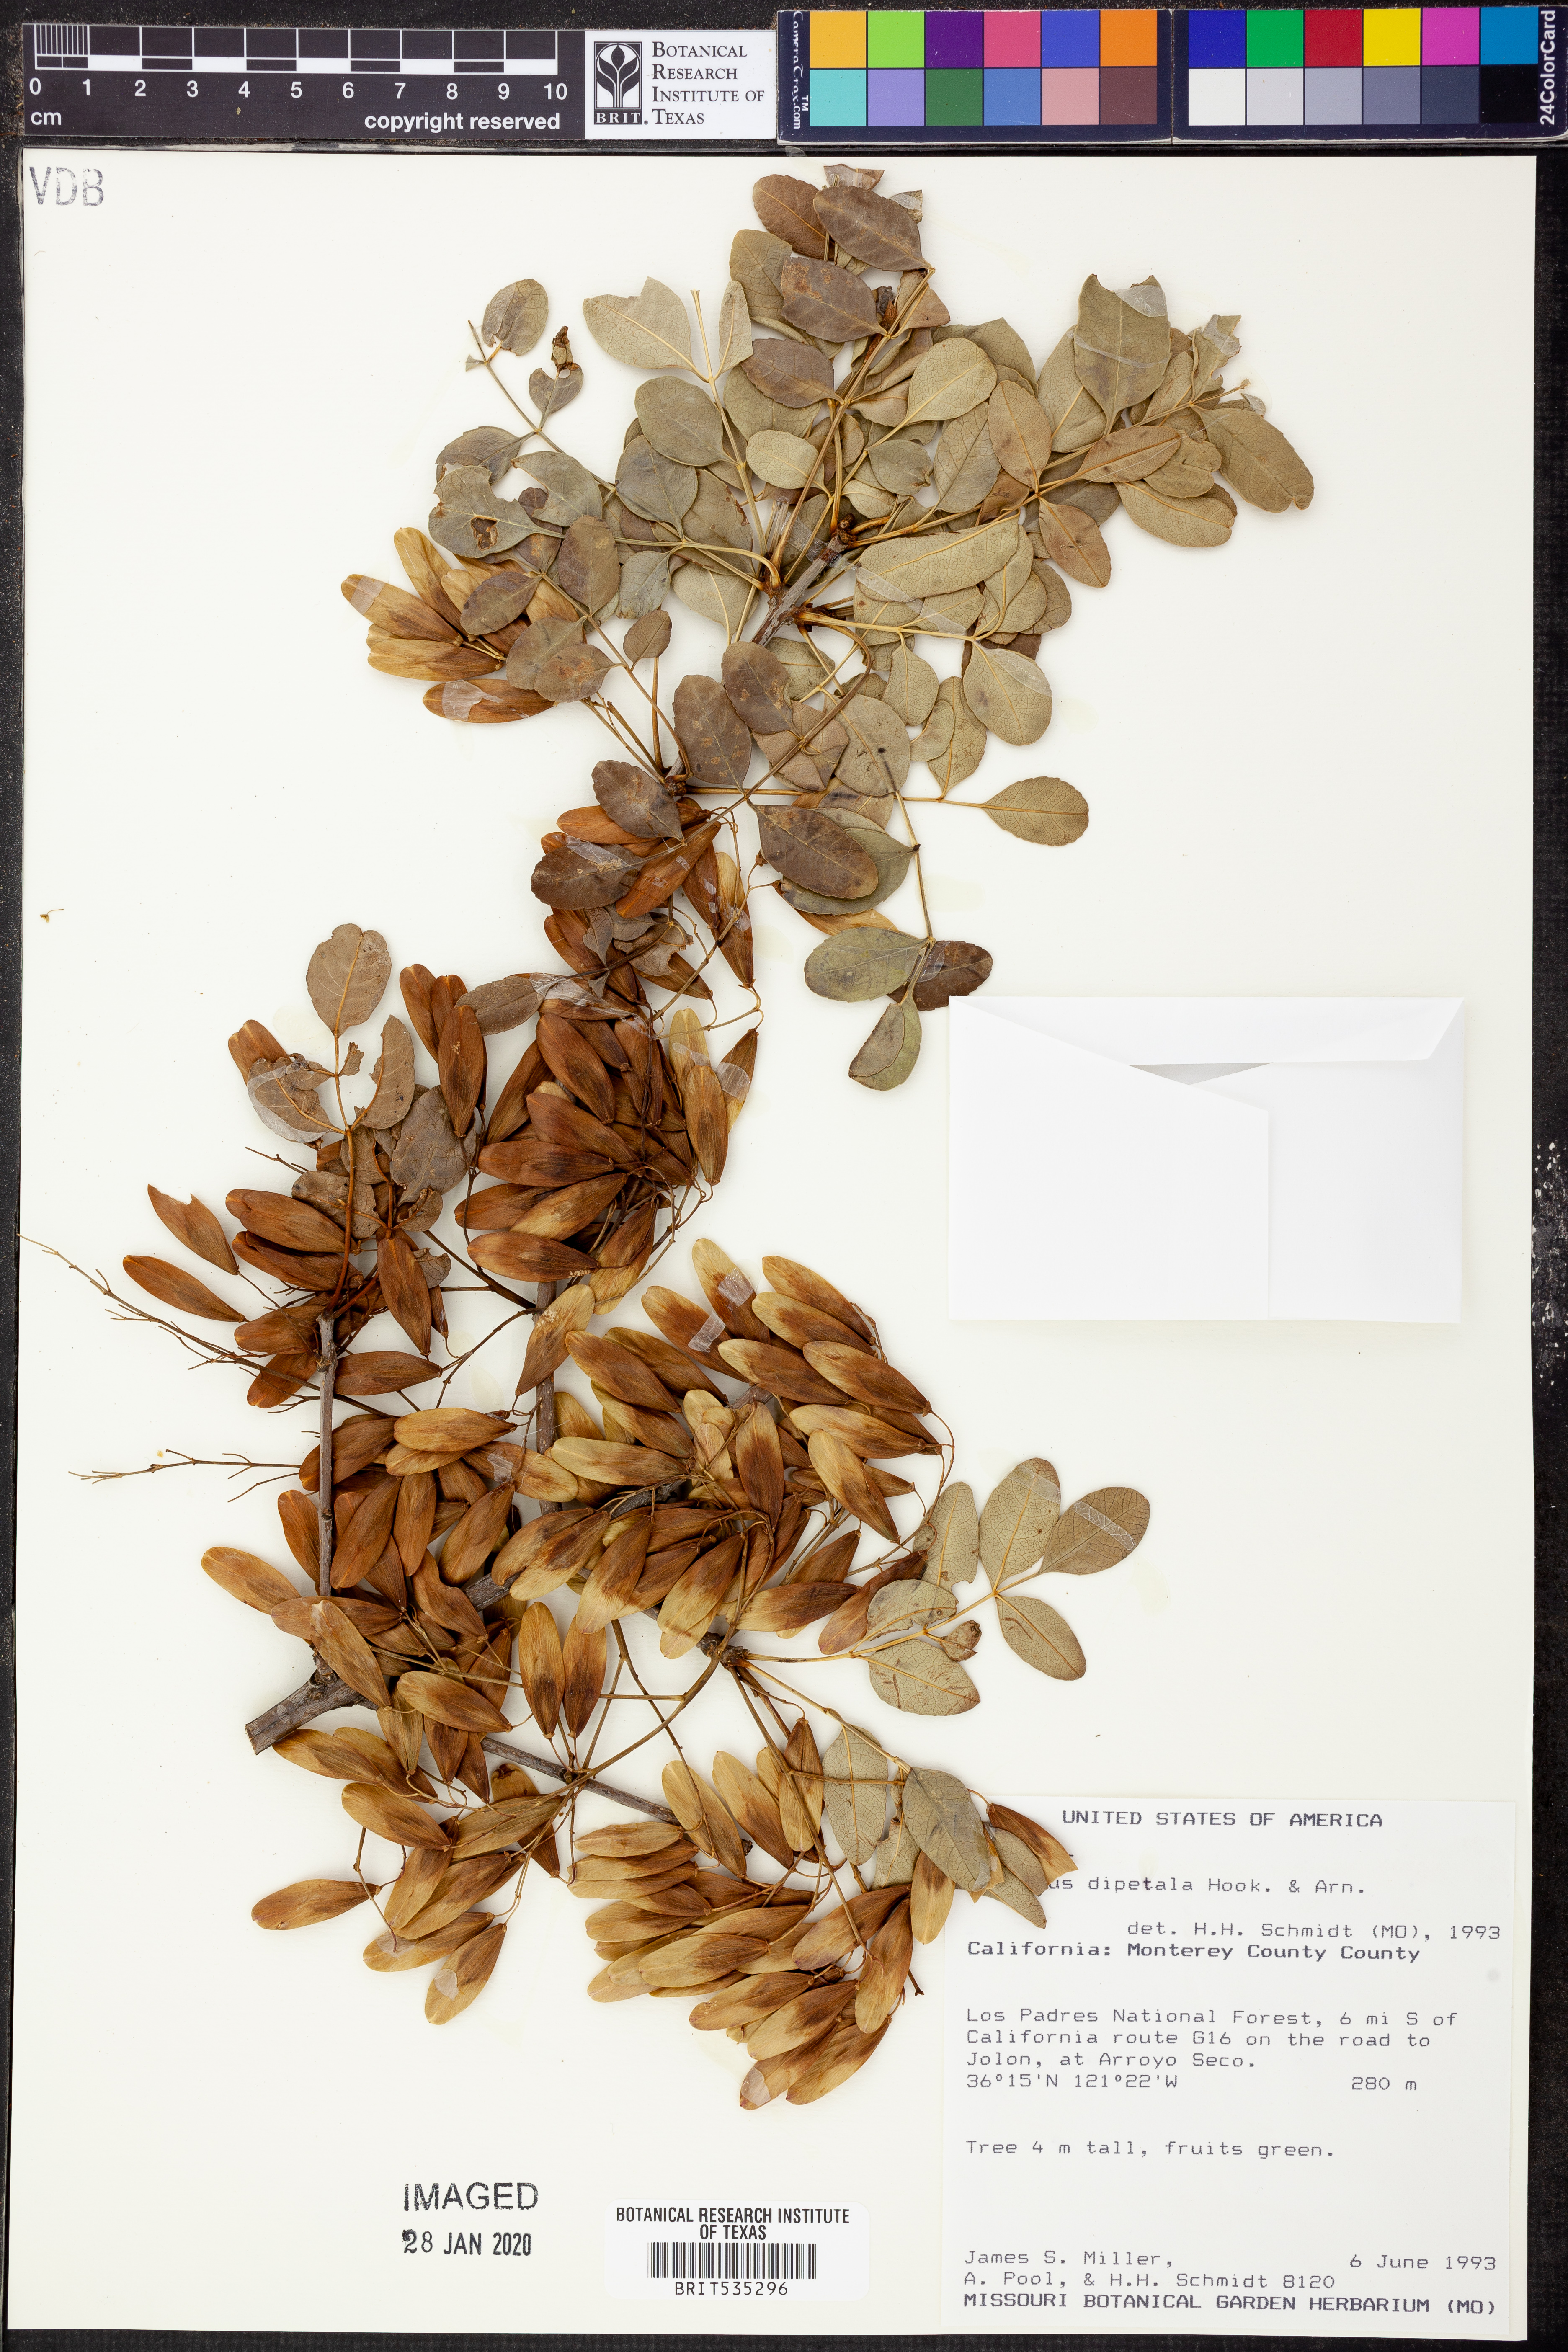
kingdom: Plantae
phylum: Tracheophyta
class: Magnoliopsida
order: Lamiales
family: Oleaceae
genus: Fraxinus
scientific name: Fraxinus dipetala
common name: California ash
